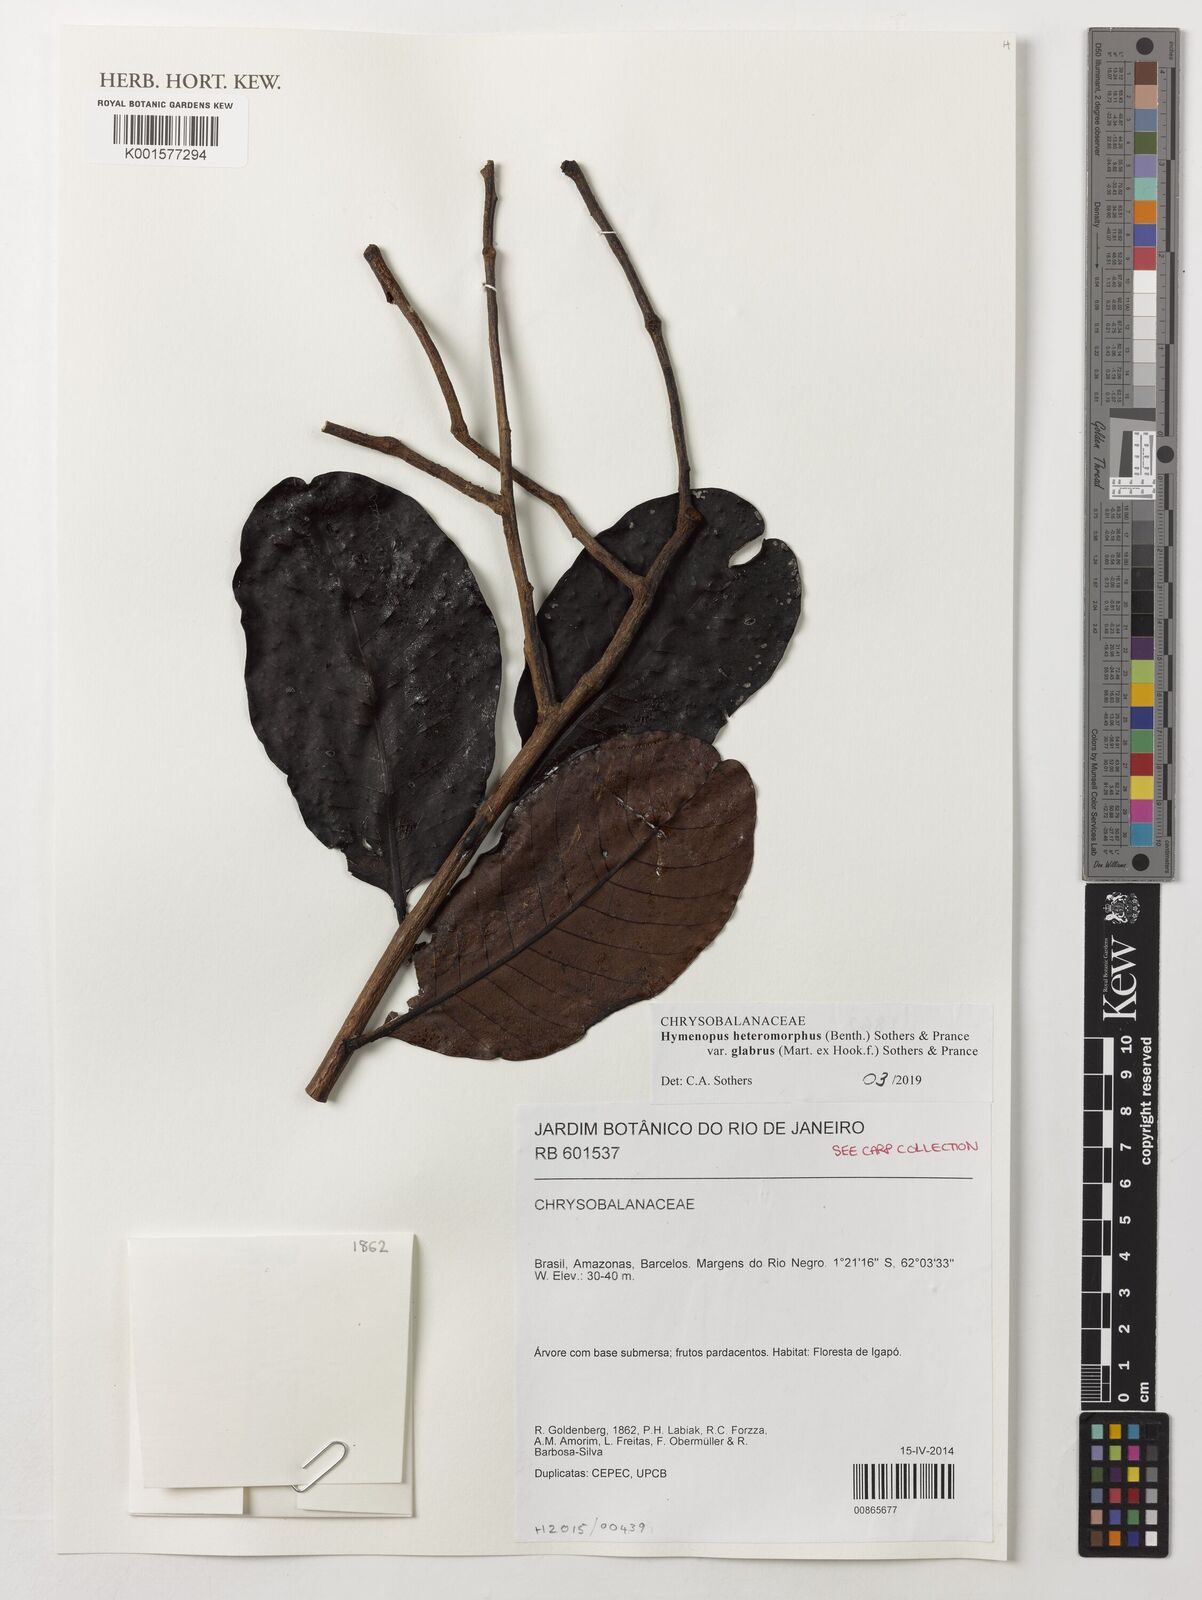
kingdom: Plantae
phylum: Tracheophyta
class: Magnoliopsida
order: Malpighiales
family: Chrysobalanaceae
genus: Hymenopus
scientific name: Hymenopus heteromorphus
